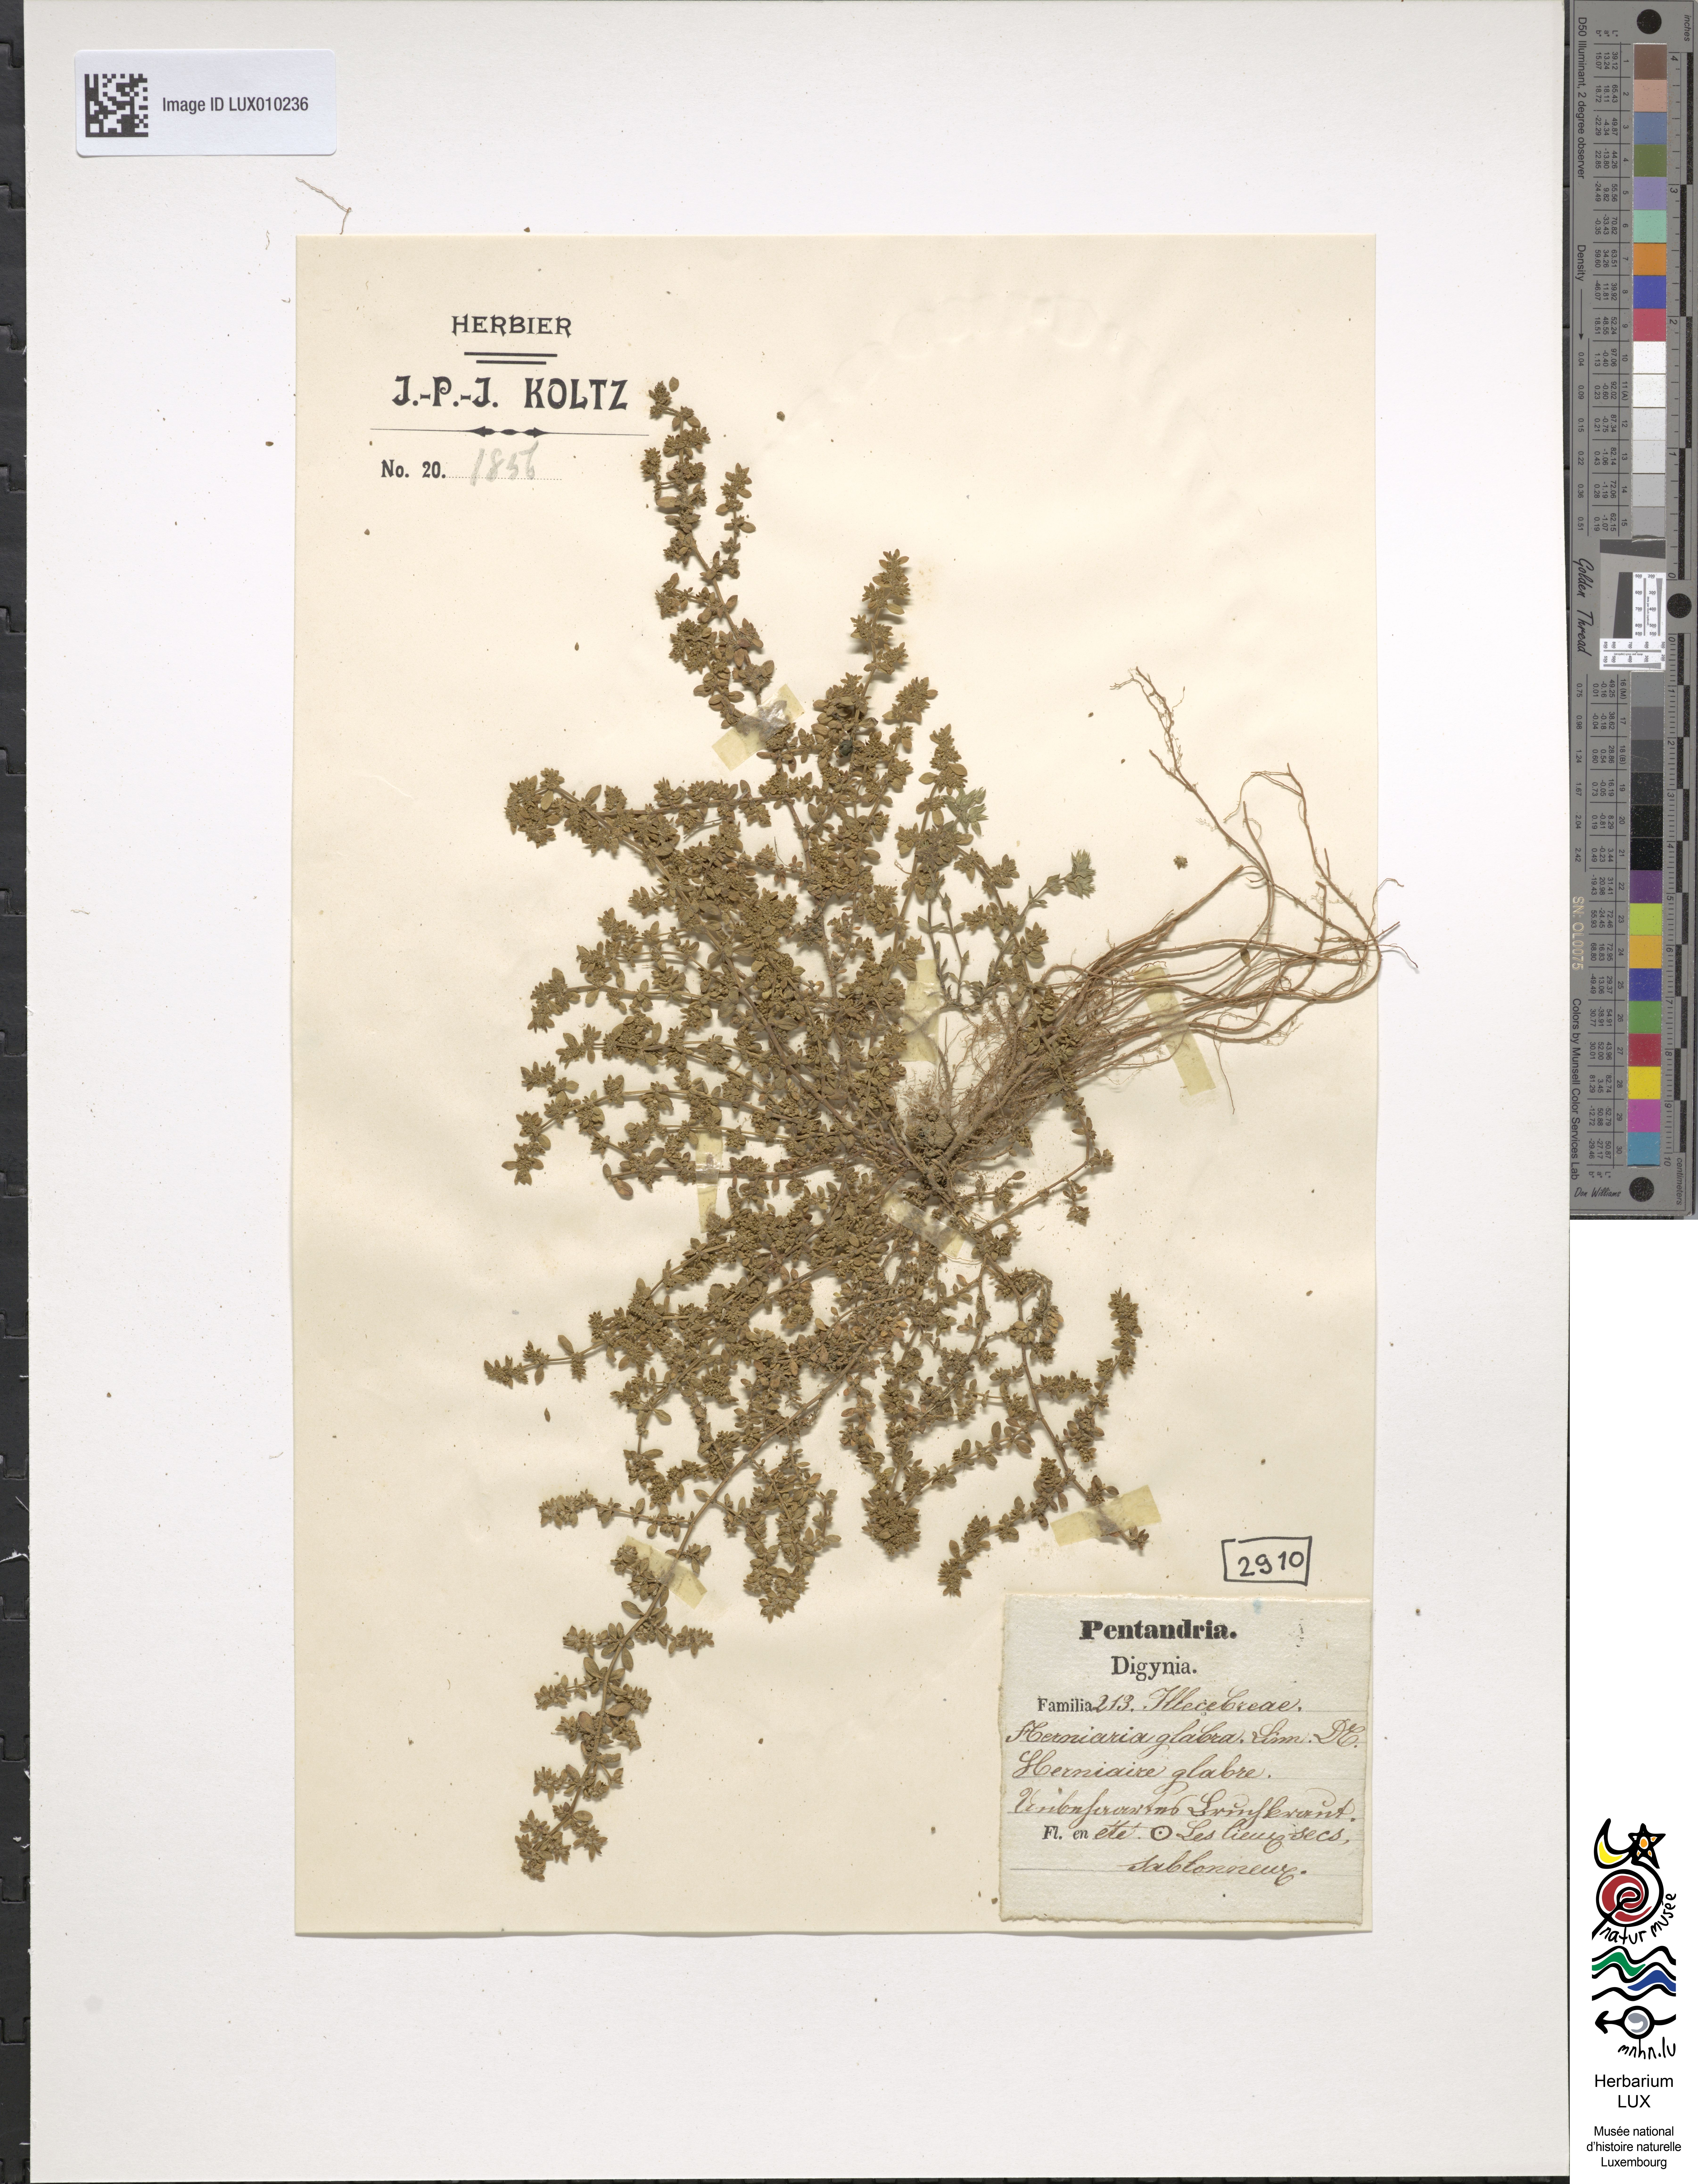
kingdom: Plantae
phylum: Tracheophyta
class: Magnoliopsida
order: Caryophyllales
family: Caryophyllaceae
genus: Herniaria
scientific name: Herniaria glabra
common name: Smooth rupturewort
